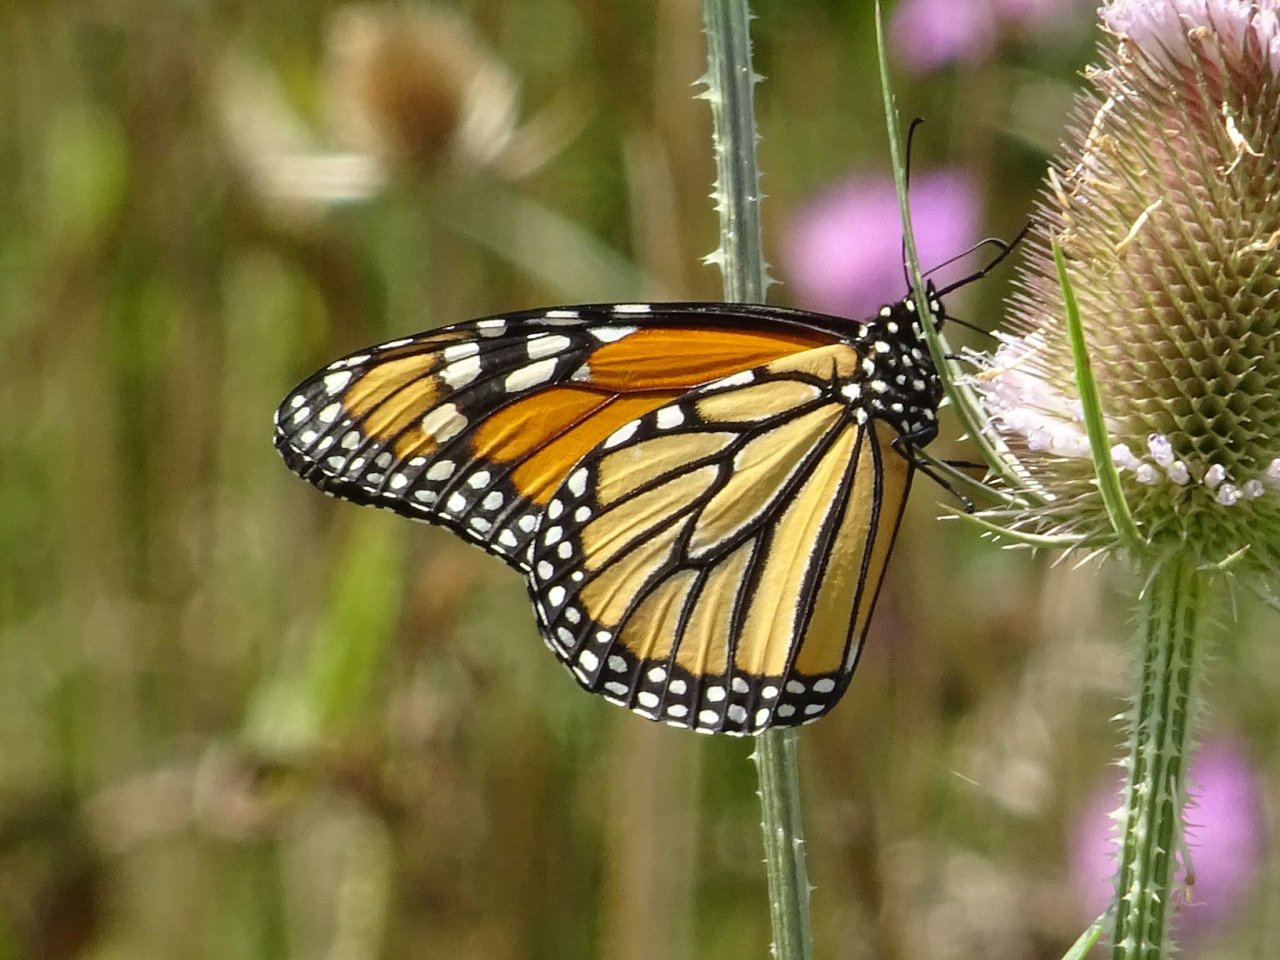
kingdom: Animalia
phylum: Arthropoda
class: Insecta
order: Lepidoptera
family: Nymphalidae
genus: Danaus
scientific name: Danaus plexippus
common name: Monarch
